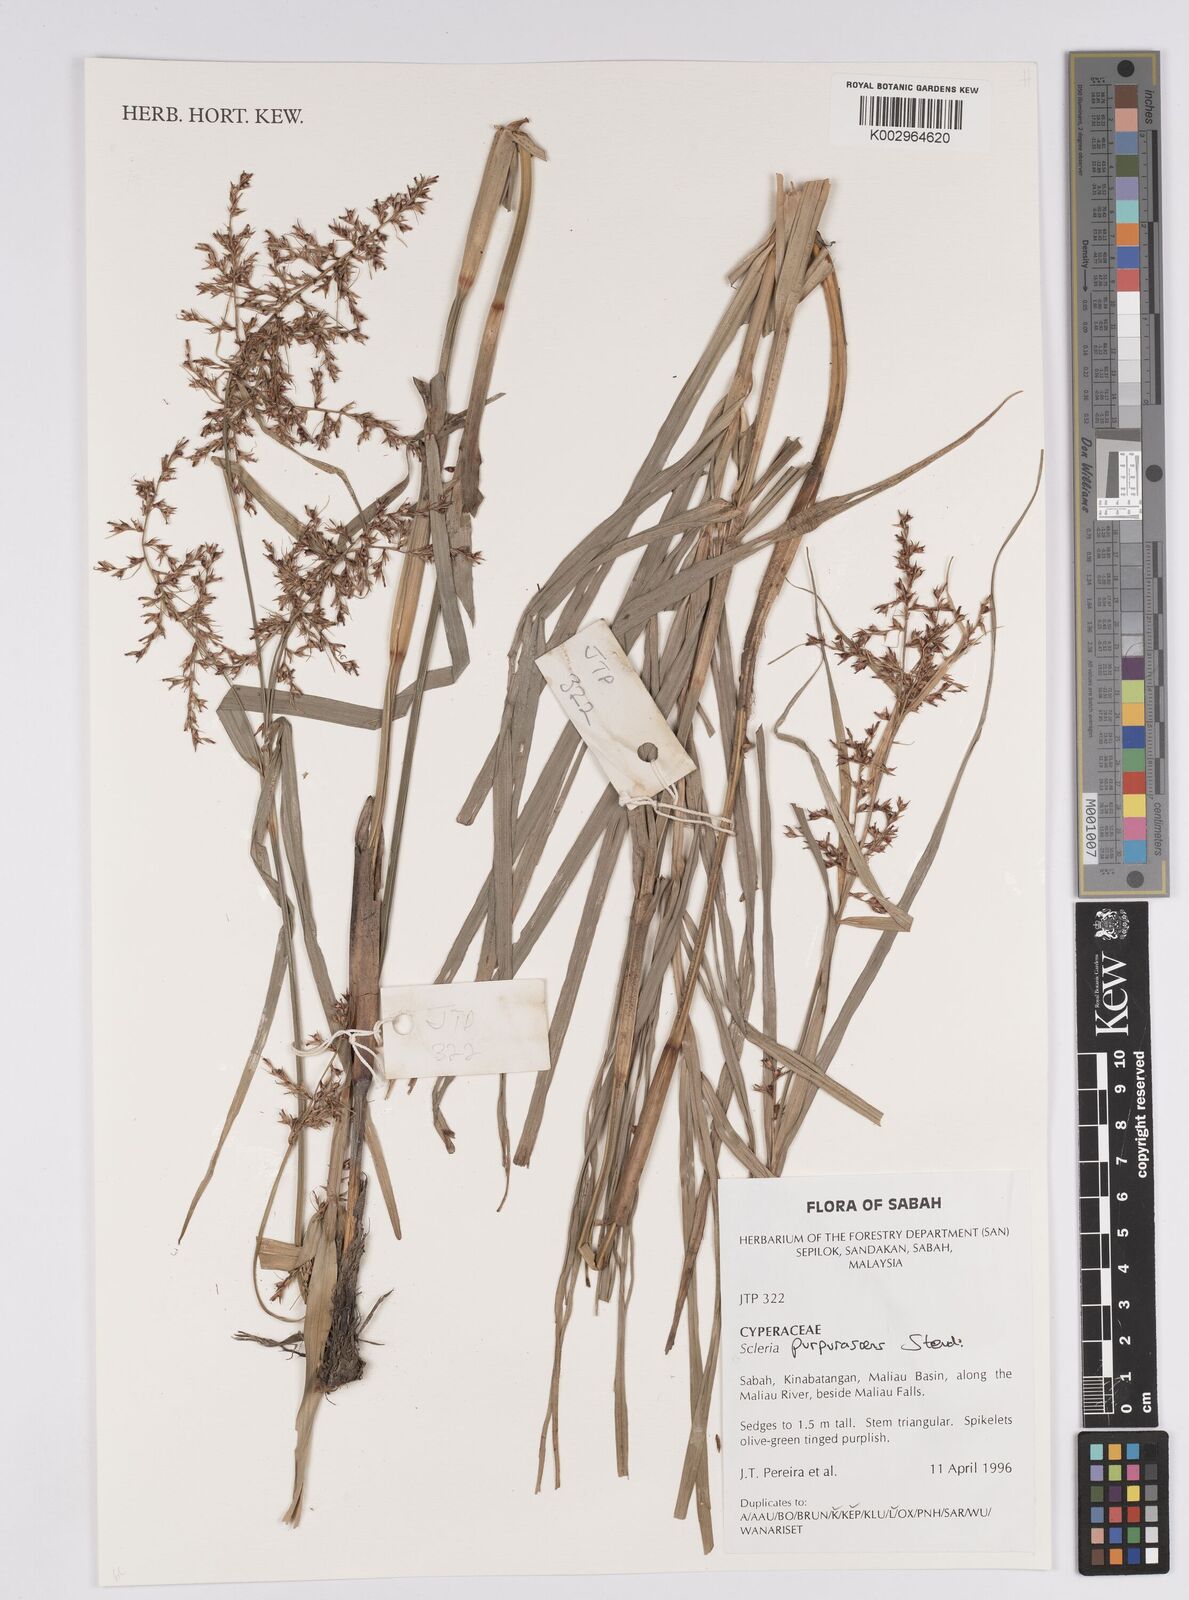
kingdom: Plantae
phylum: Tracheophyta
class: Liliopsida
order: Poales
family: Cyperaceae
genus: Scleria
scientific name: Scleria purpurascens
